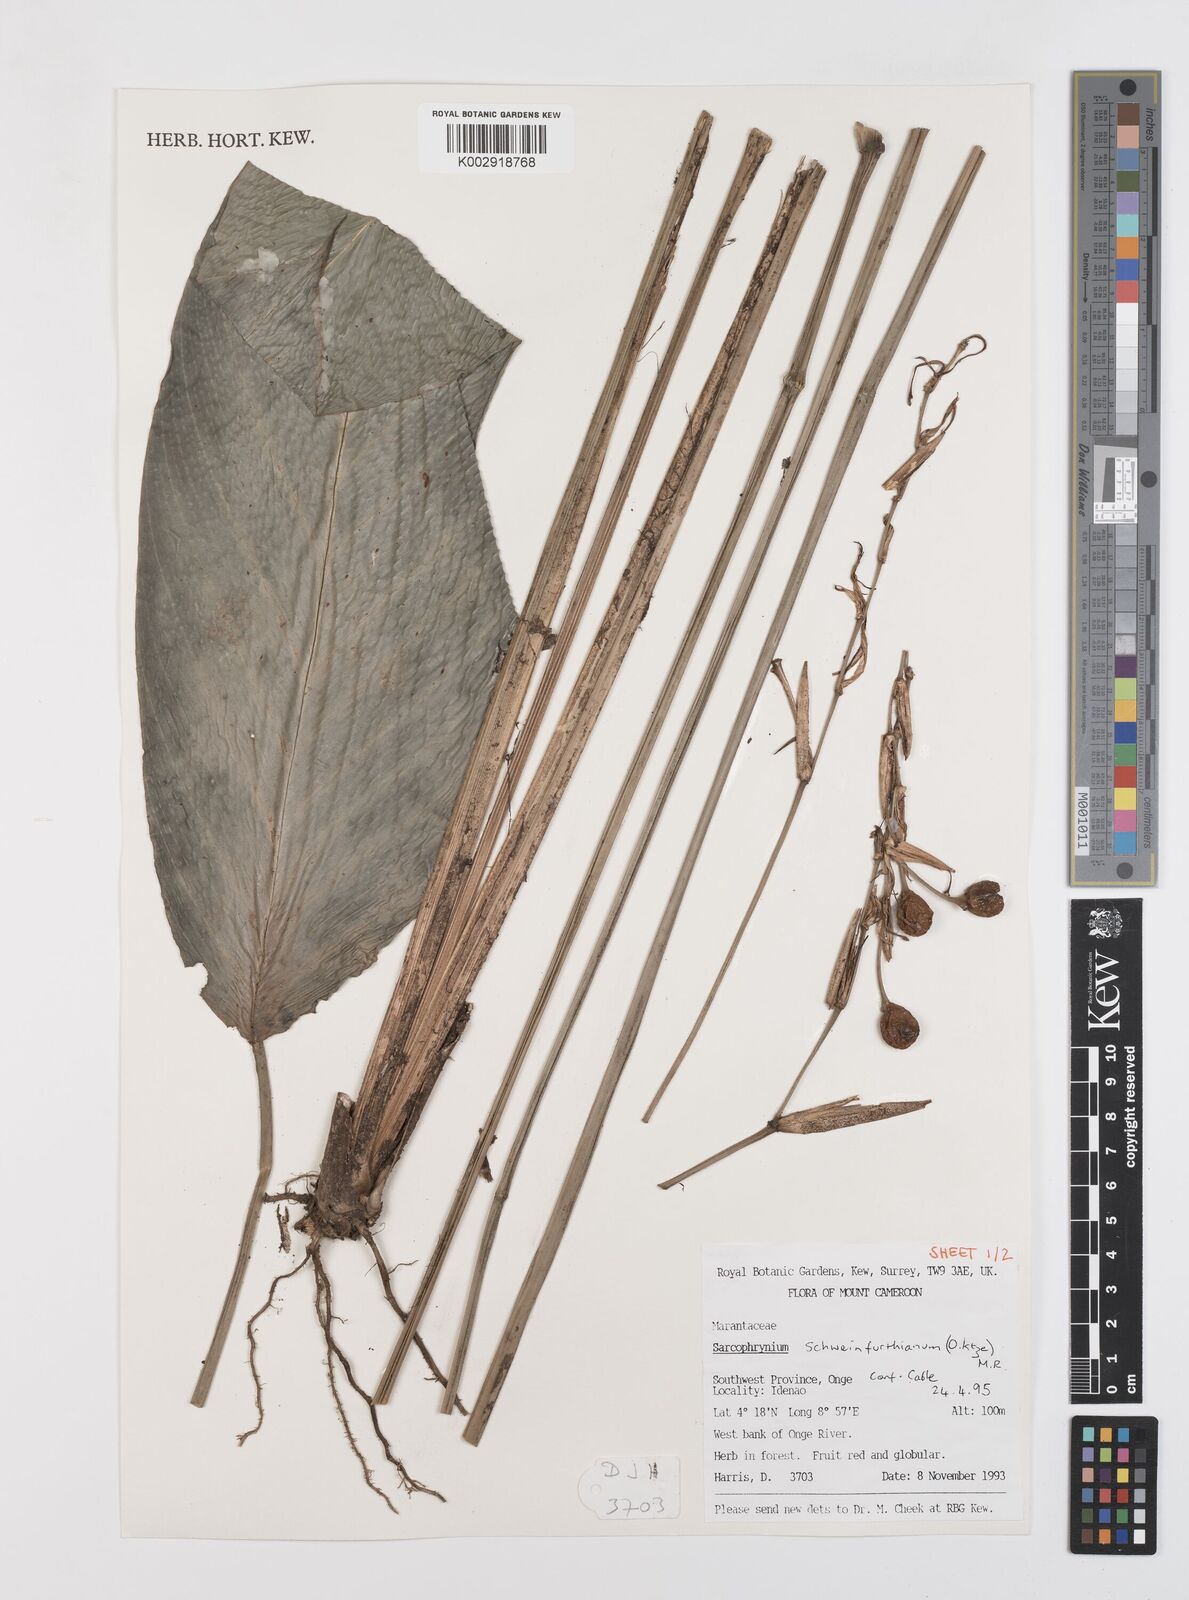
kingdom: Plantae
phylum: Tracheophyta
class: Liliopsida
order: Zingiberales
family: Marantaceae
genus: Sarcophrynium
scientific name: Sarcophrynium schweinfurthianum
